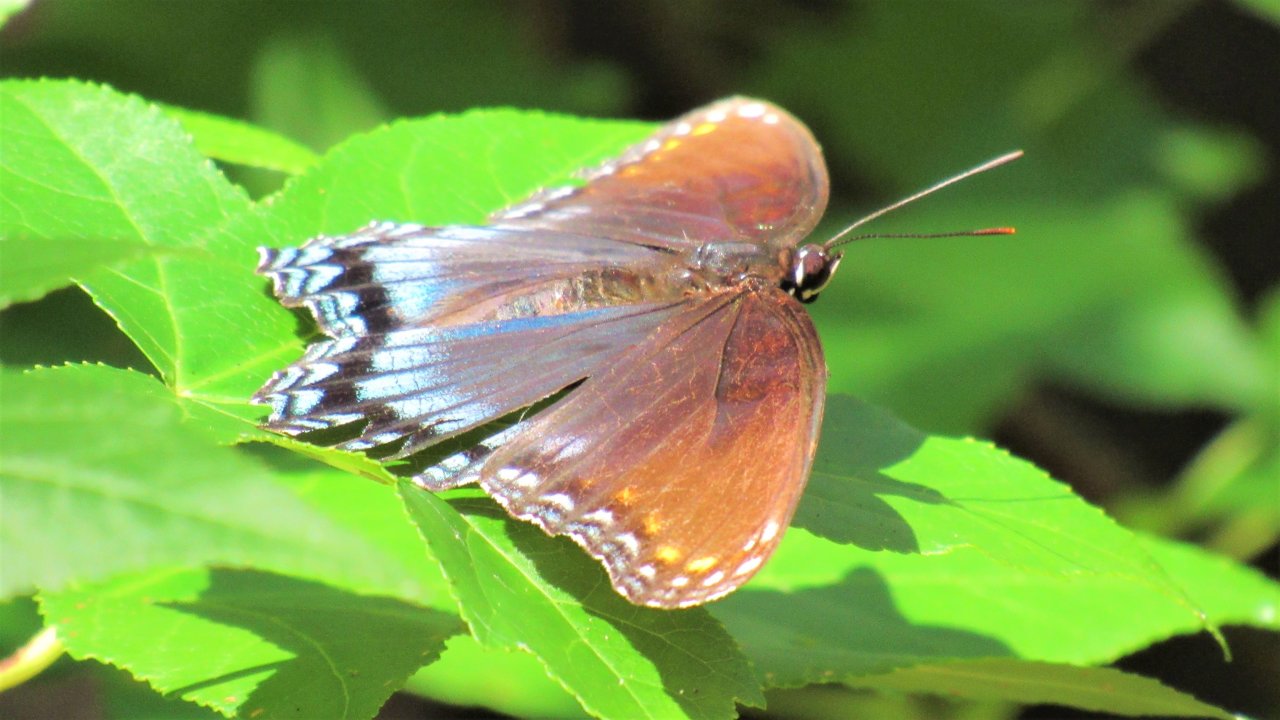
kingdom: Animalia
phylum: Arthropoda
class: Insecta
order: Lepidoptera
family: Nymphalidae
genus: Limenitis
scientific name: Limenitis arthemis
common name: Red-spotted Admiral
